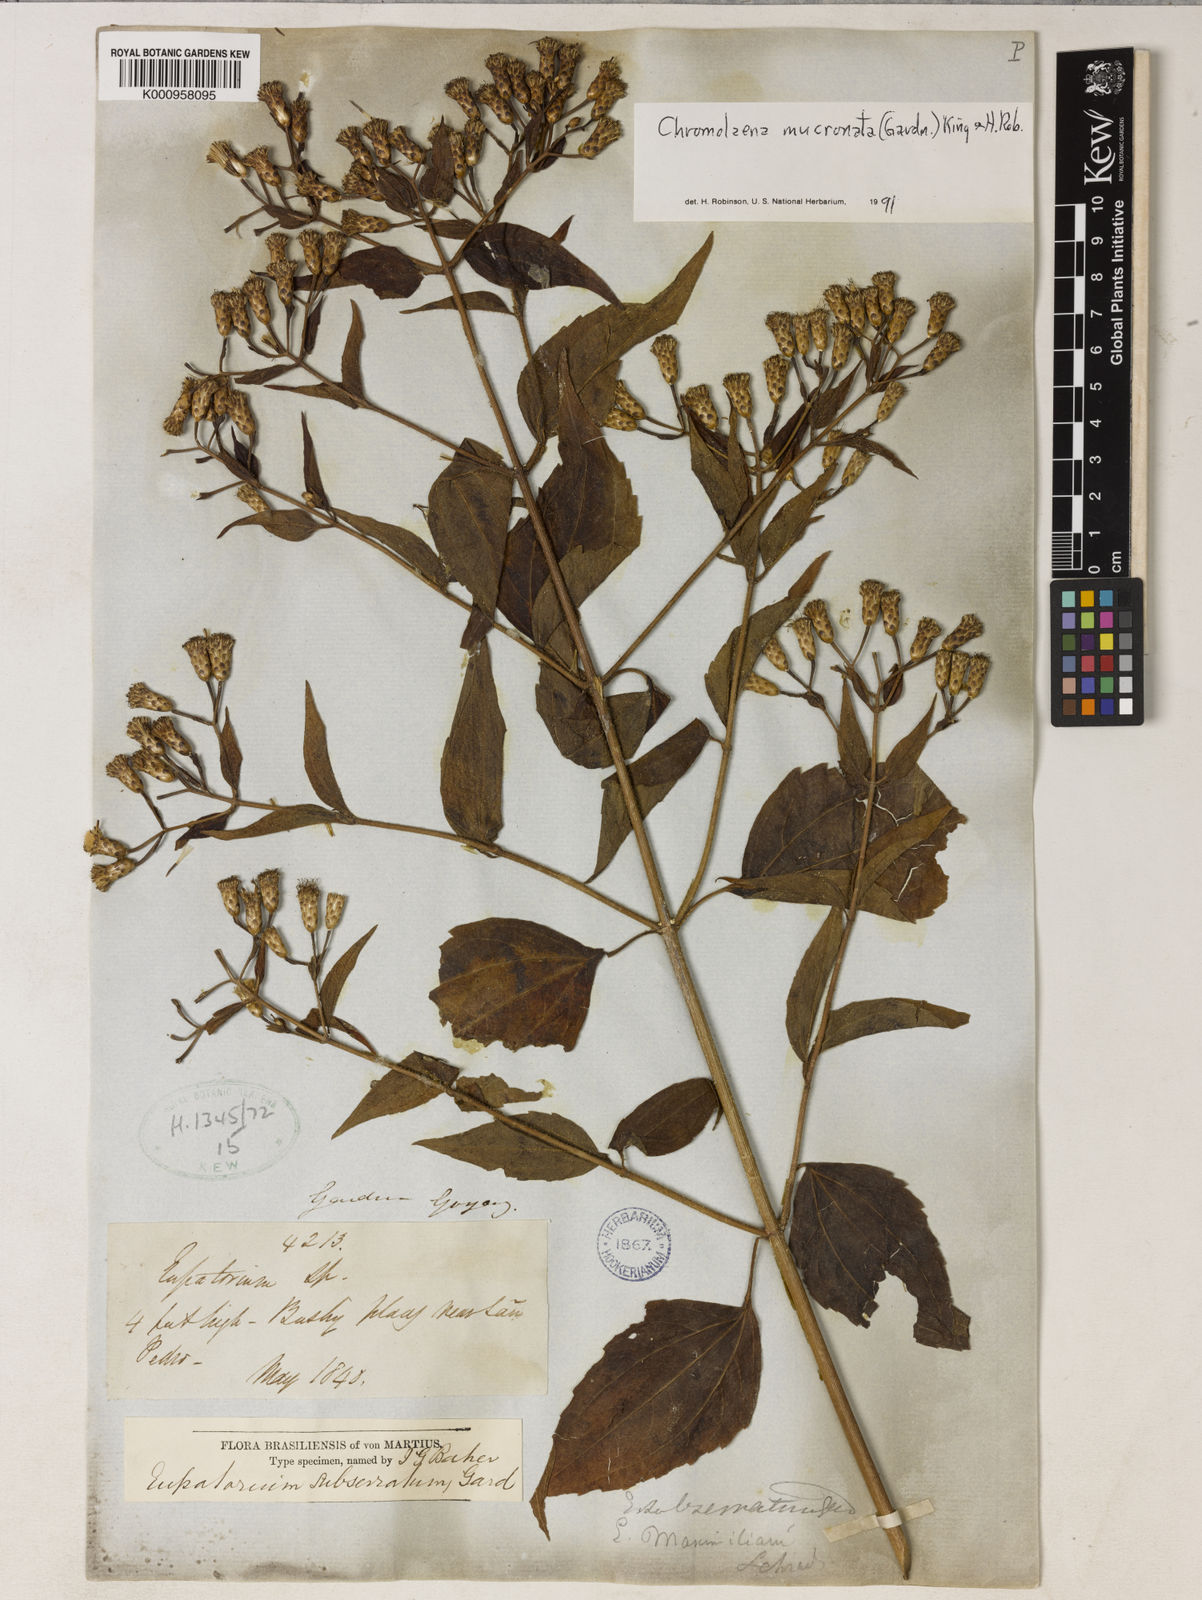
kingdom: Plantae
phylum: Tracheophyta
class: Magnoliopsida
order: Asterales
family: Asteraceae
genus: Chromolaena
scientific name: Chromolaena mucronata
